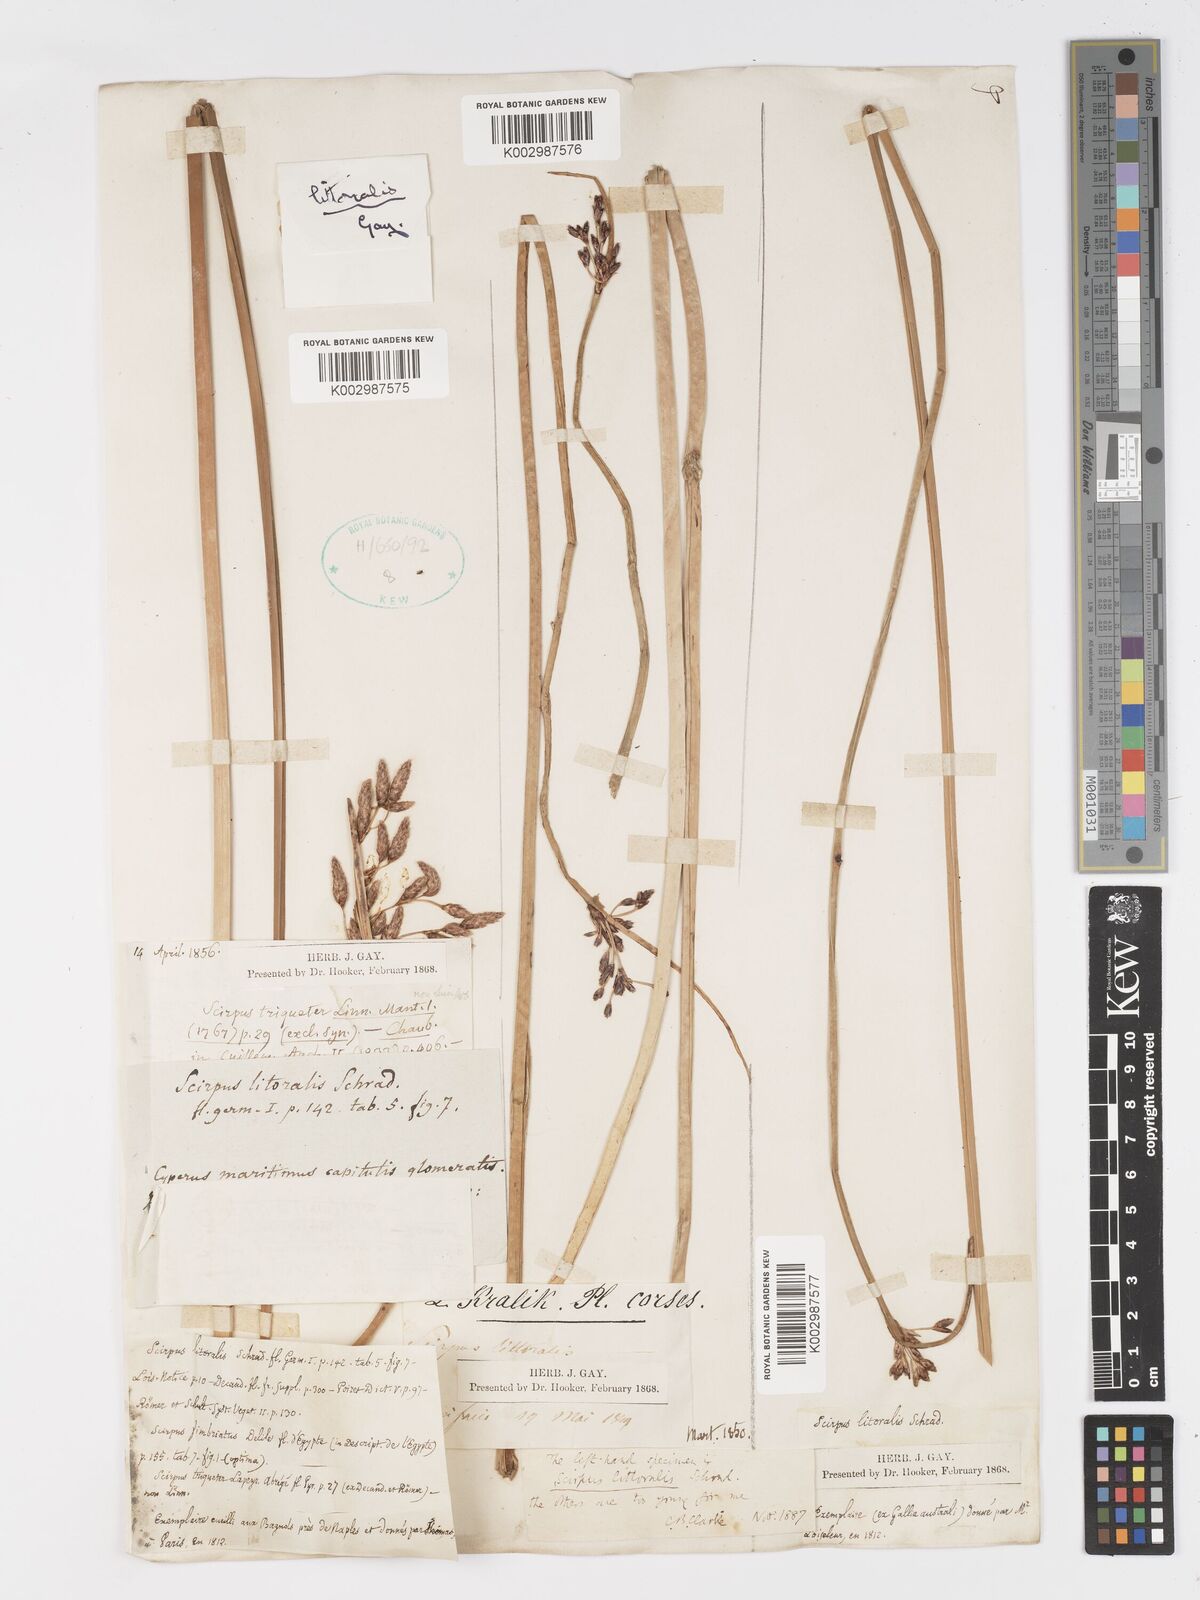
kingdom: Plantae
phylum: Tracheophyta
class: Liliopsida
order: Poales
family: Cyperaceae
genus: Schoenoplectus
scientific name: Schoenoplectus litoralis
